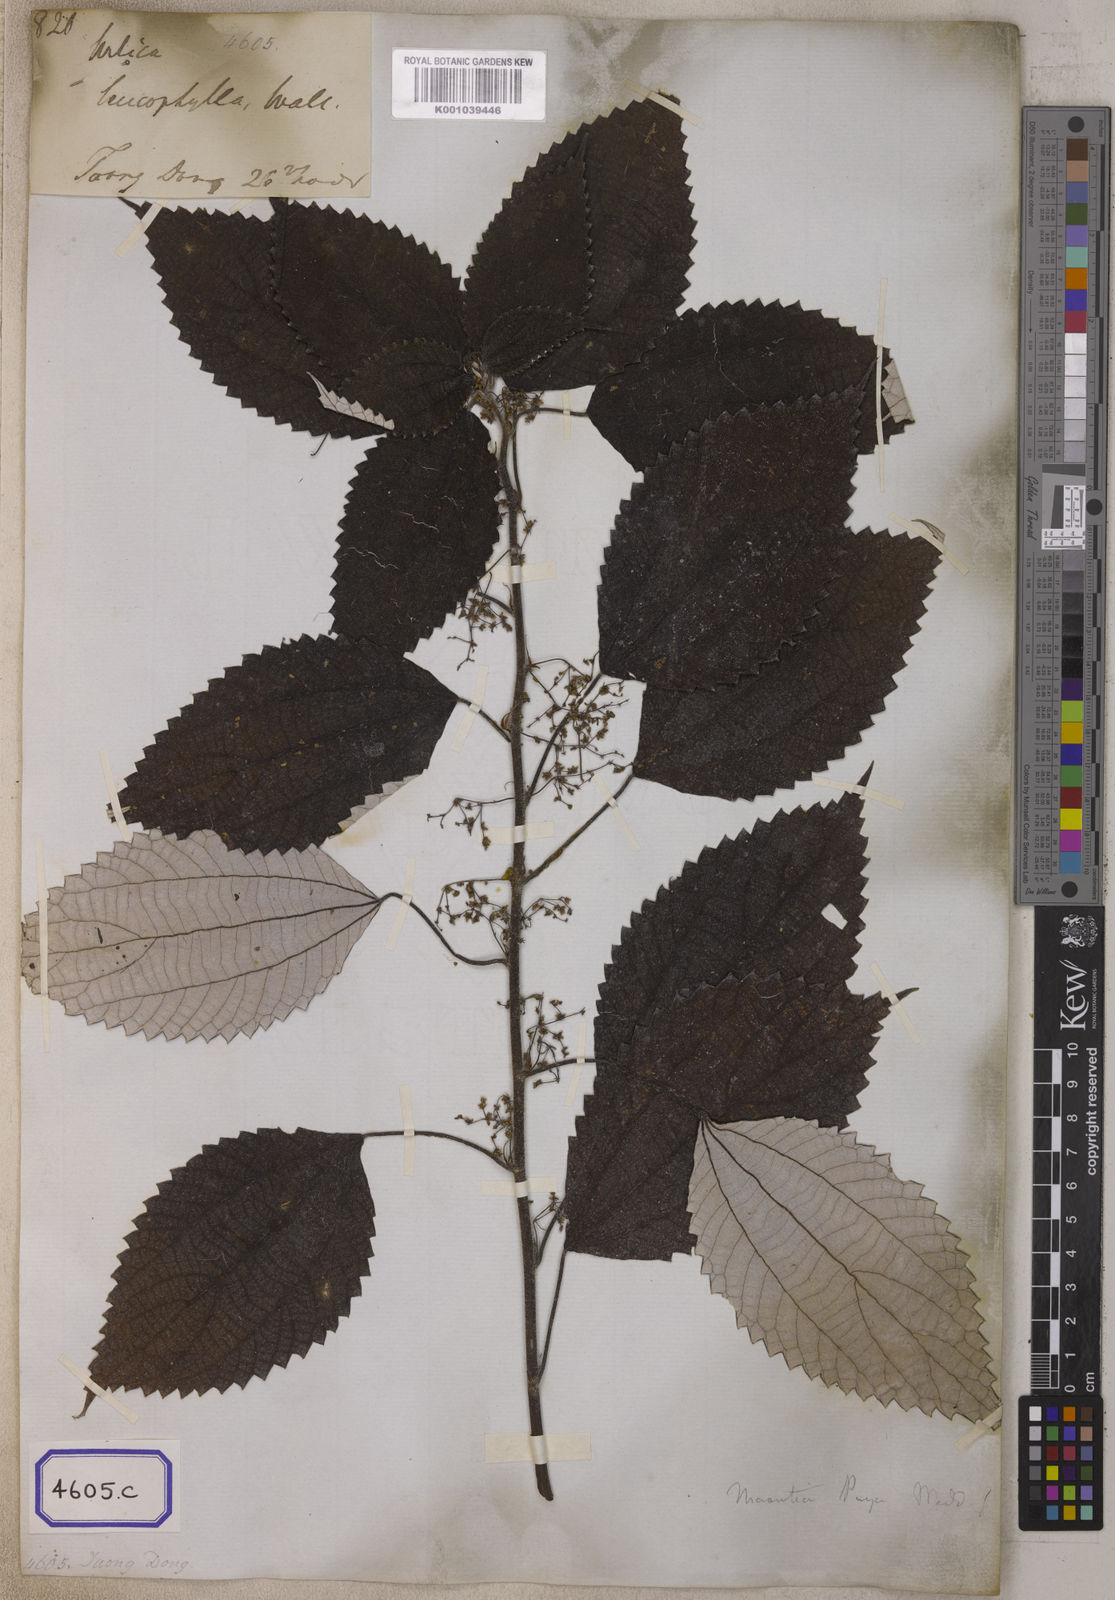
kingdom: Plantae
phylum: Tracheophyta
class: Magnoliopsida
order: Rosales
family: Urticaceae
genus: Leucosyke
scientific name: Leucosyke puya
